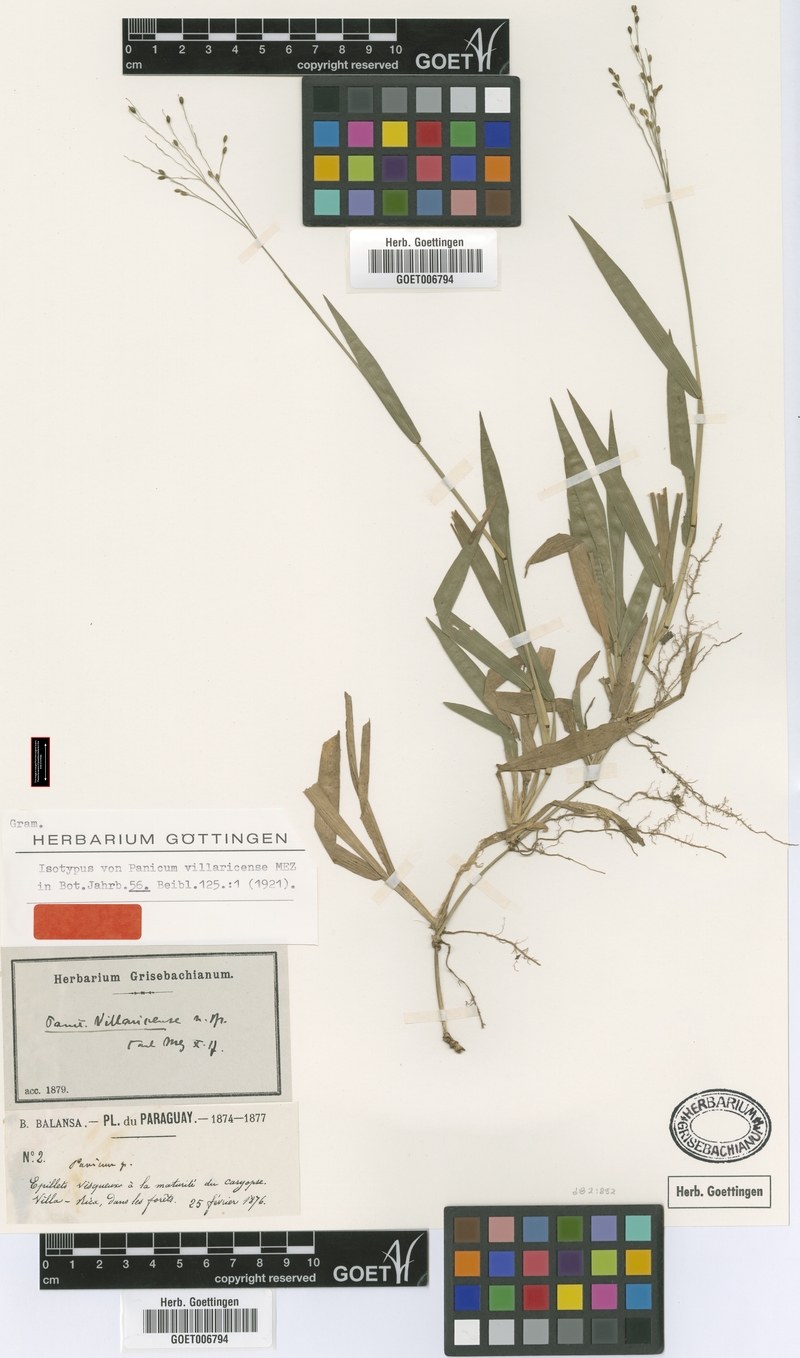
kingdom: Plantae
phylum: Tracheophyta
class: Liliopsida
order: Poales
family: Poaceae
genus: Homolepis
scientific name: Homolepis villaricensis
